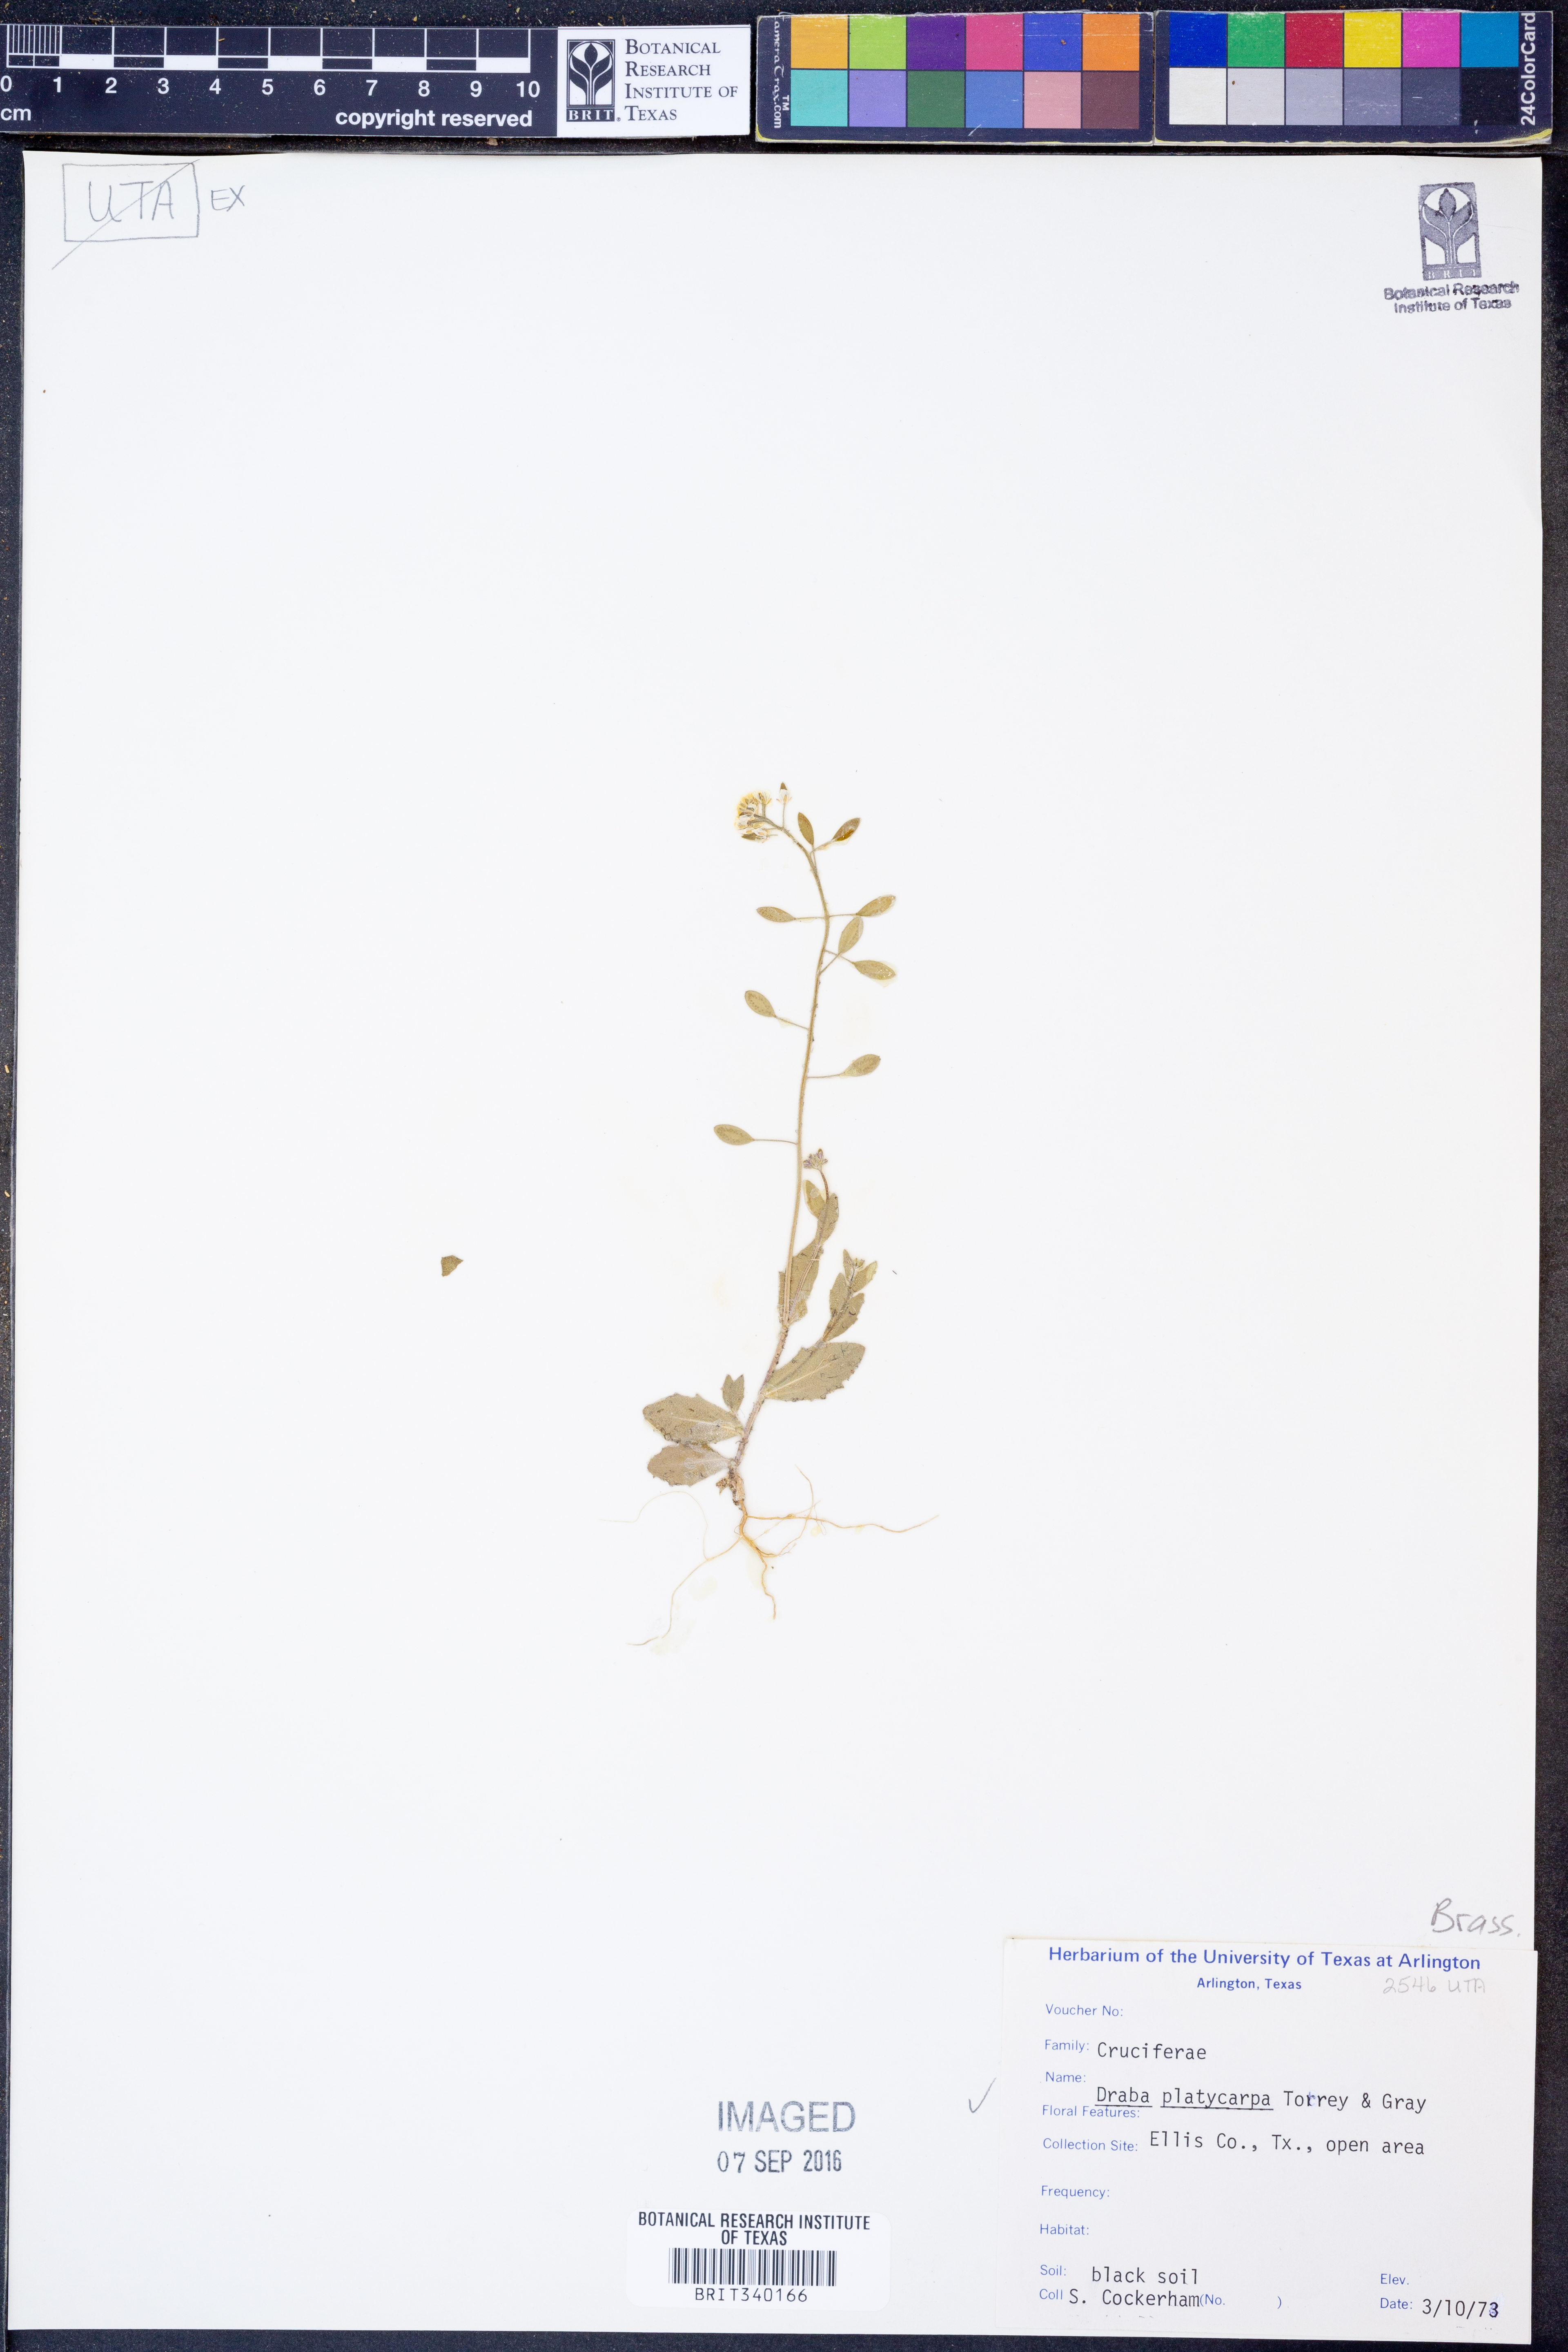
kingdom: Plantae
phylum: Tracheophyta
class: Magnoliopsida
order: Brassicales
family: Brassicaceae
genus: Tomostima
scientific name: Tomostima platycarpa
